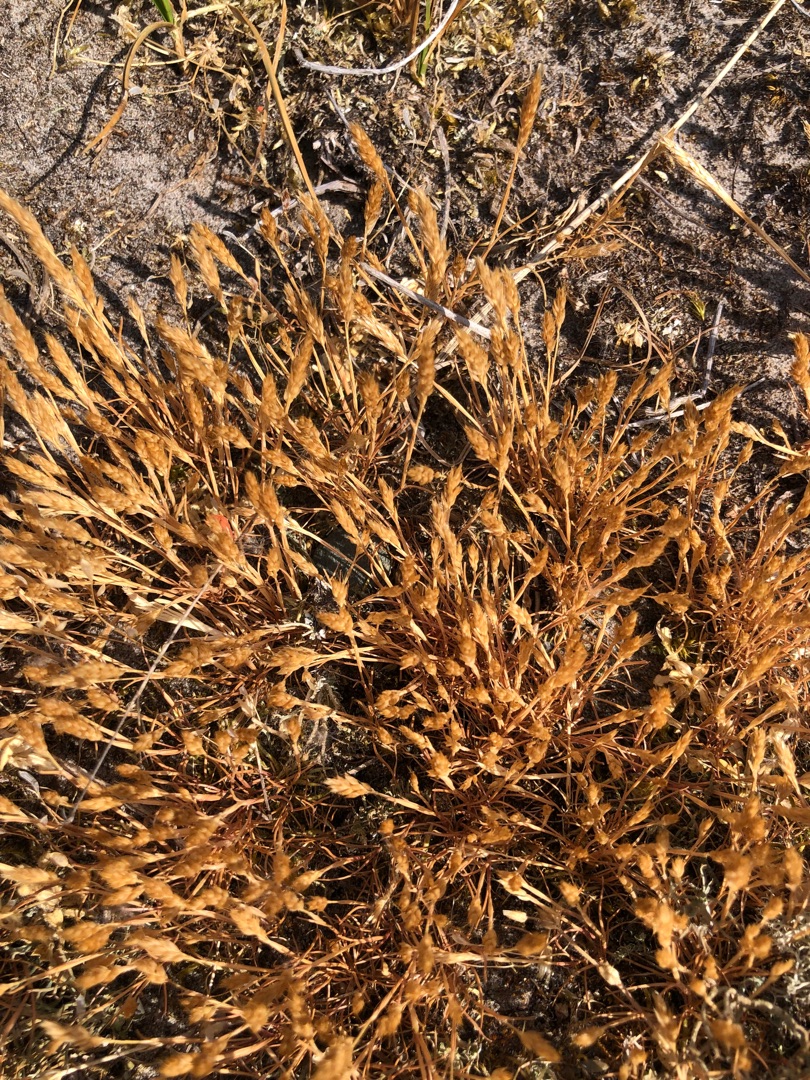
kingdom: Plantae
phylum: Tracheophyta
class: Liliopsida
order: Poales
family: Poaceae
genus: Aira
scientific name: Aira praecox
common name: Tidlig dværgbunke
